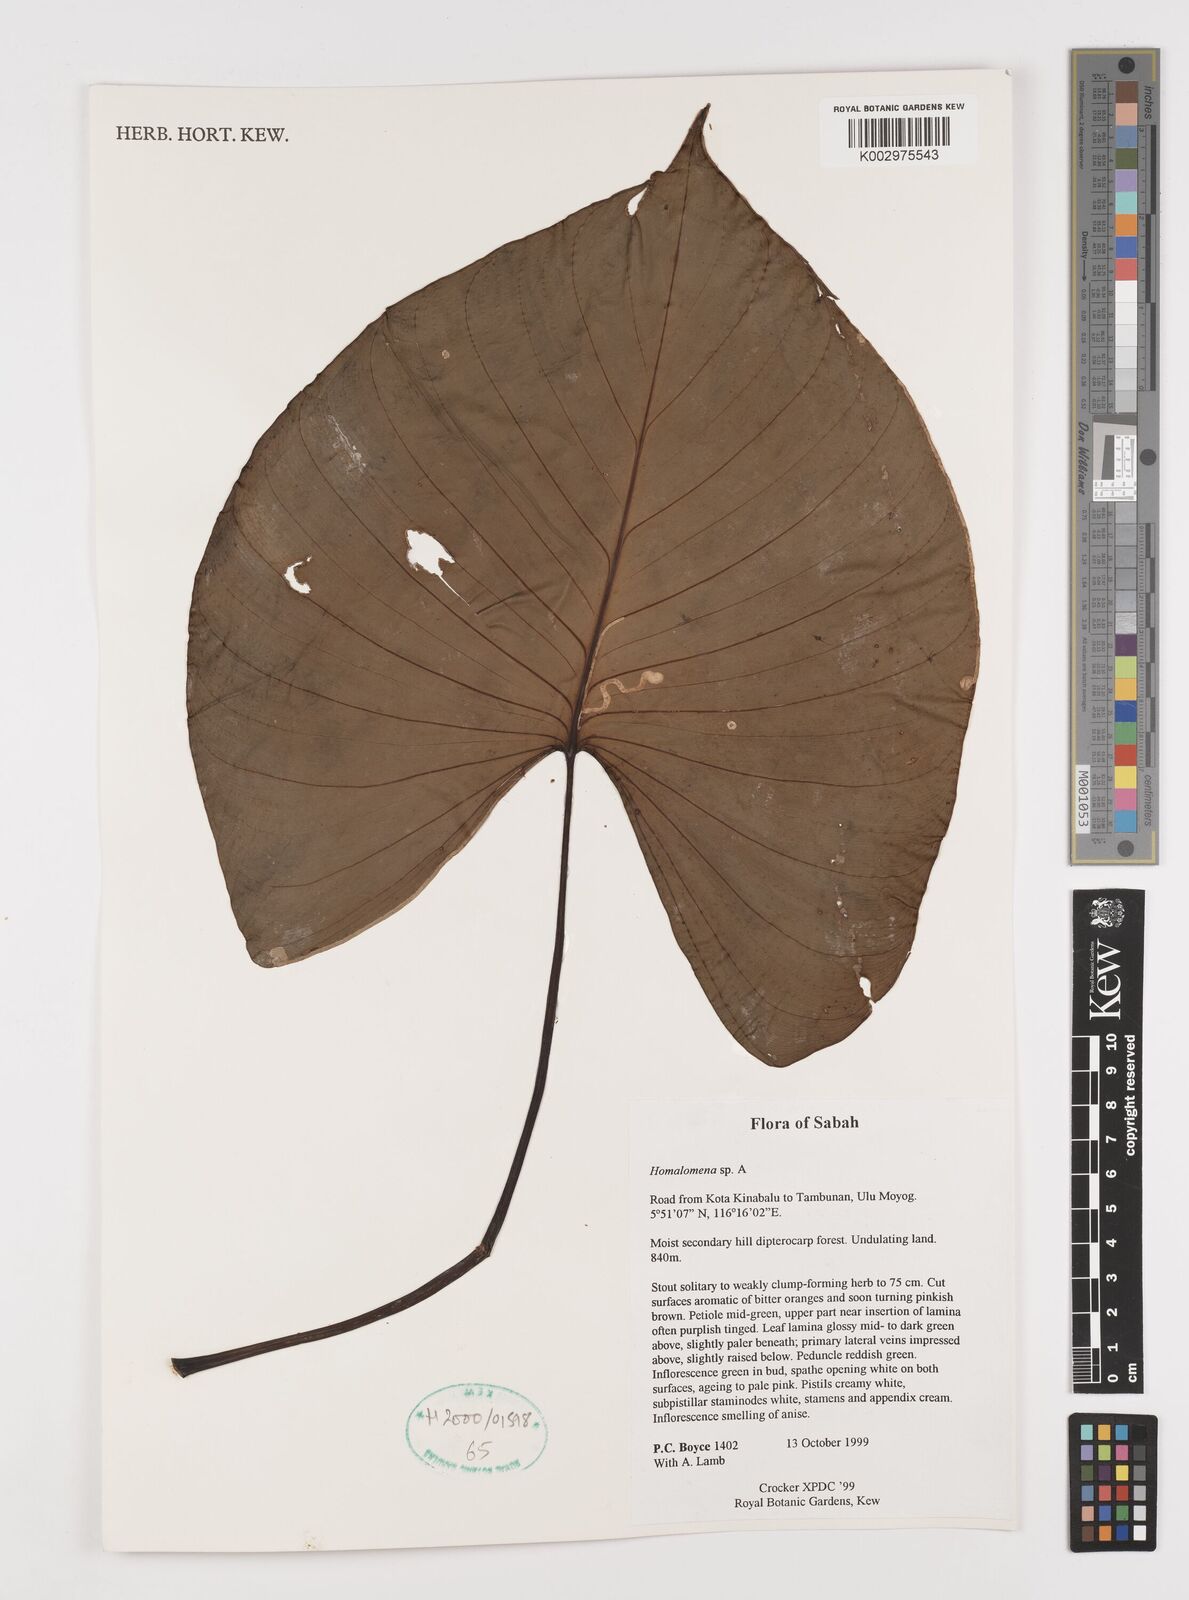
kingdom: Plantae
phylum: Tracheophyta
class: Liliopsida
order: Alismatales
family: Araceae
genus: Homalomena
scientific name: Homalomena
